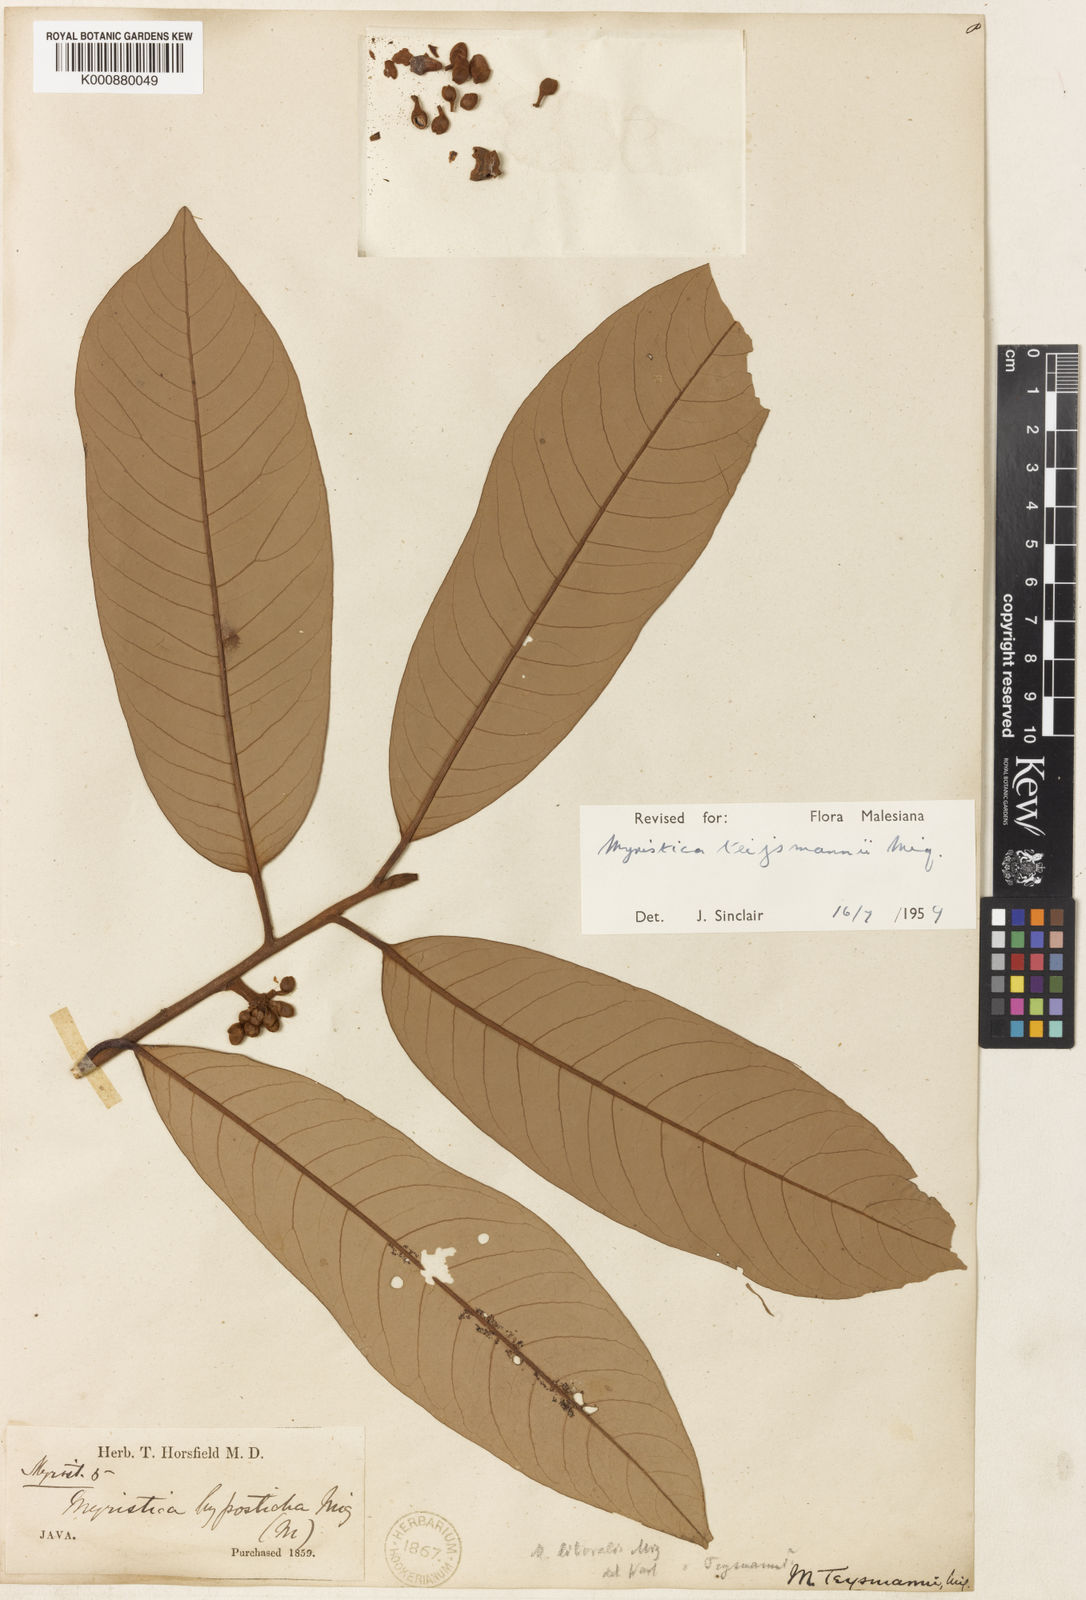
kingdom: Plantae
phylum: Tracheophyta
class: Magnoliopsida
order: Magnoliales
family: Myristicaceae
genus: Myristica
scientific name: Myristica teysmannii
